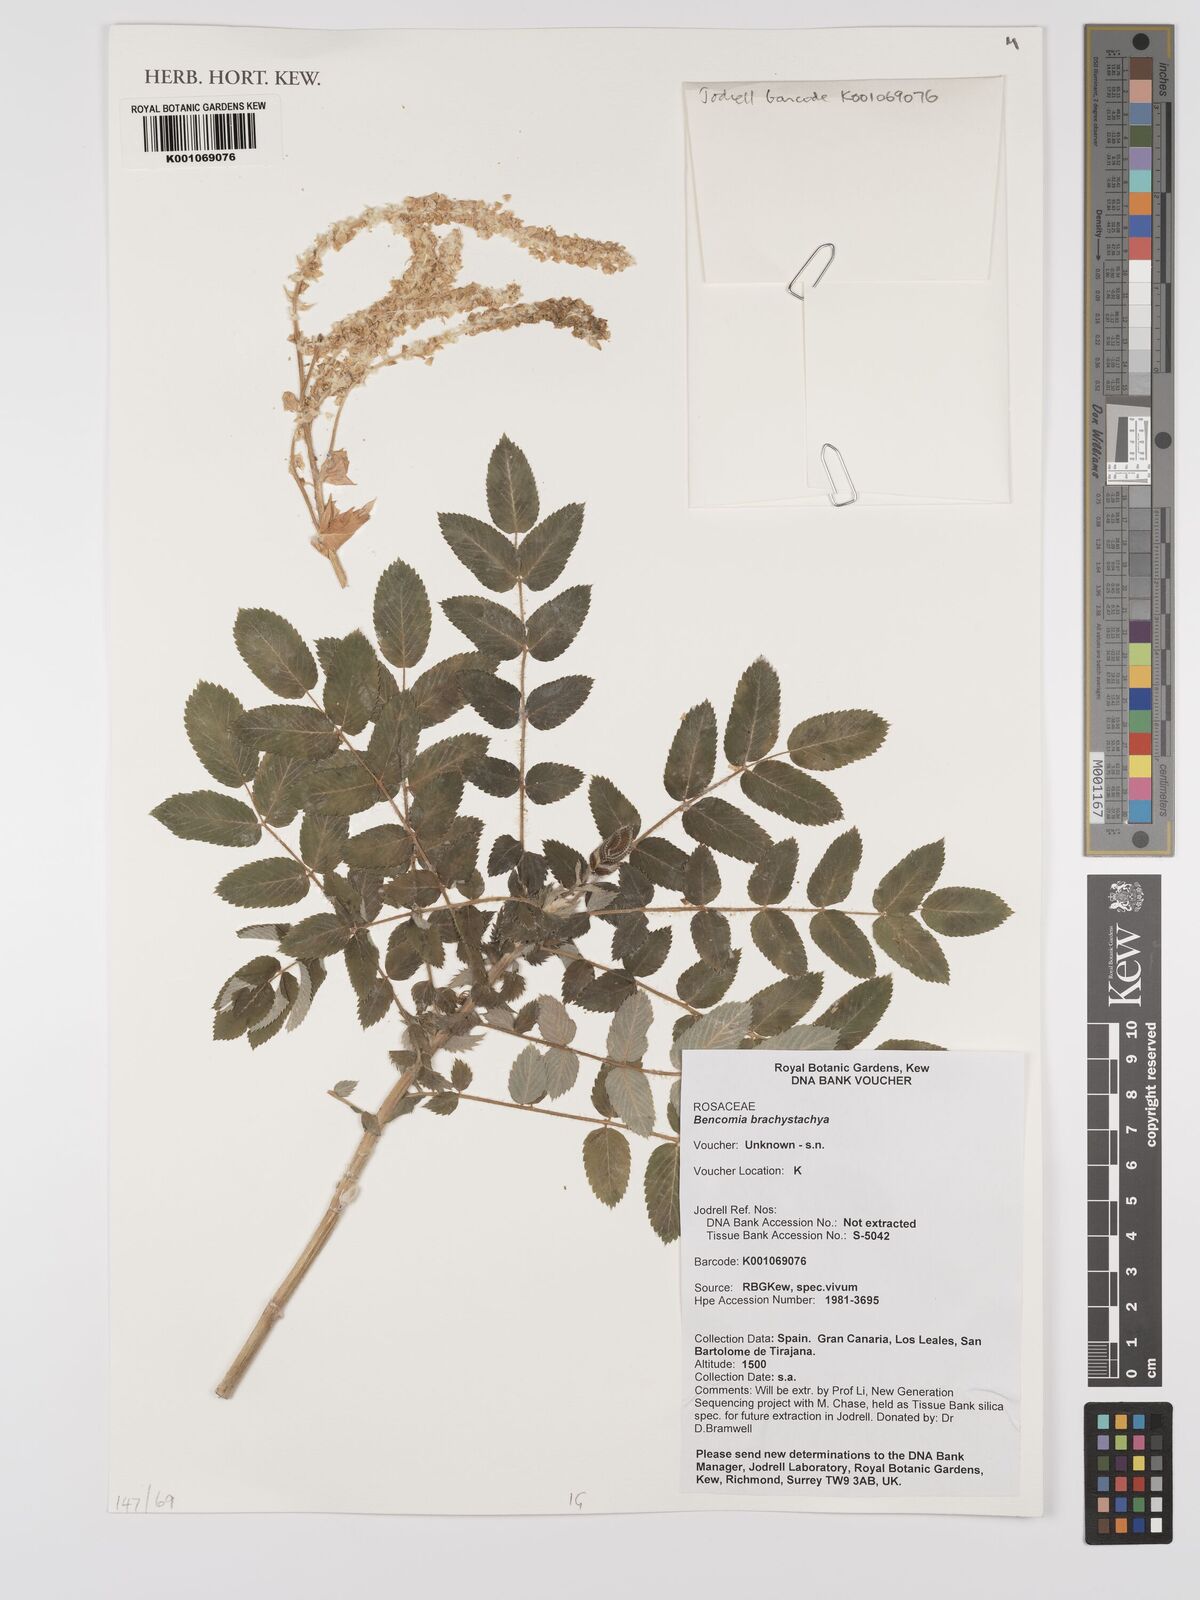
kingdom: Plantae
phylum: Tracheophyta
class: Magnoliopsida
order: Rosales
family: Rosaceae
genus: Bencomia
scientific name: Bencomia brachystachya
